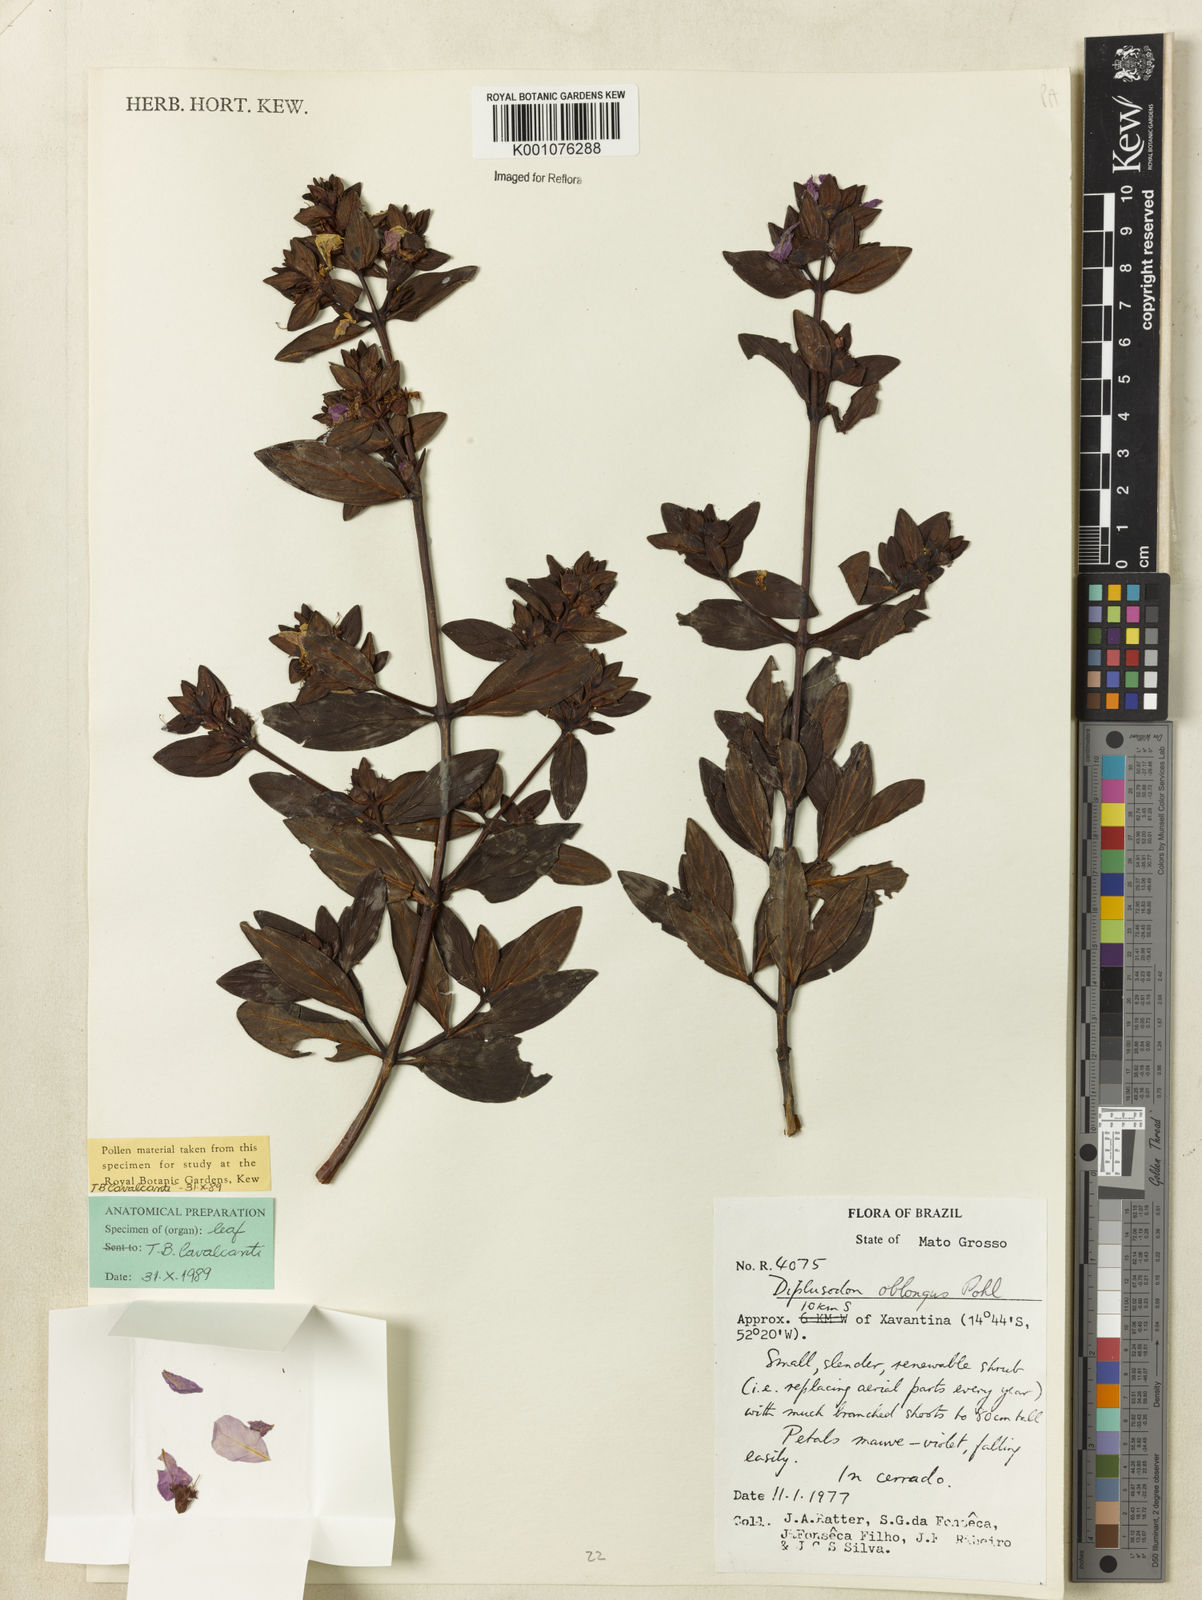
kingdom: Plantae
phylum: Tracheophyta
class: Magnoliopsida
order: Myrtales
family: Lythraceae
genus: Diplusodon
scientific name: Diplusodon oblongus
